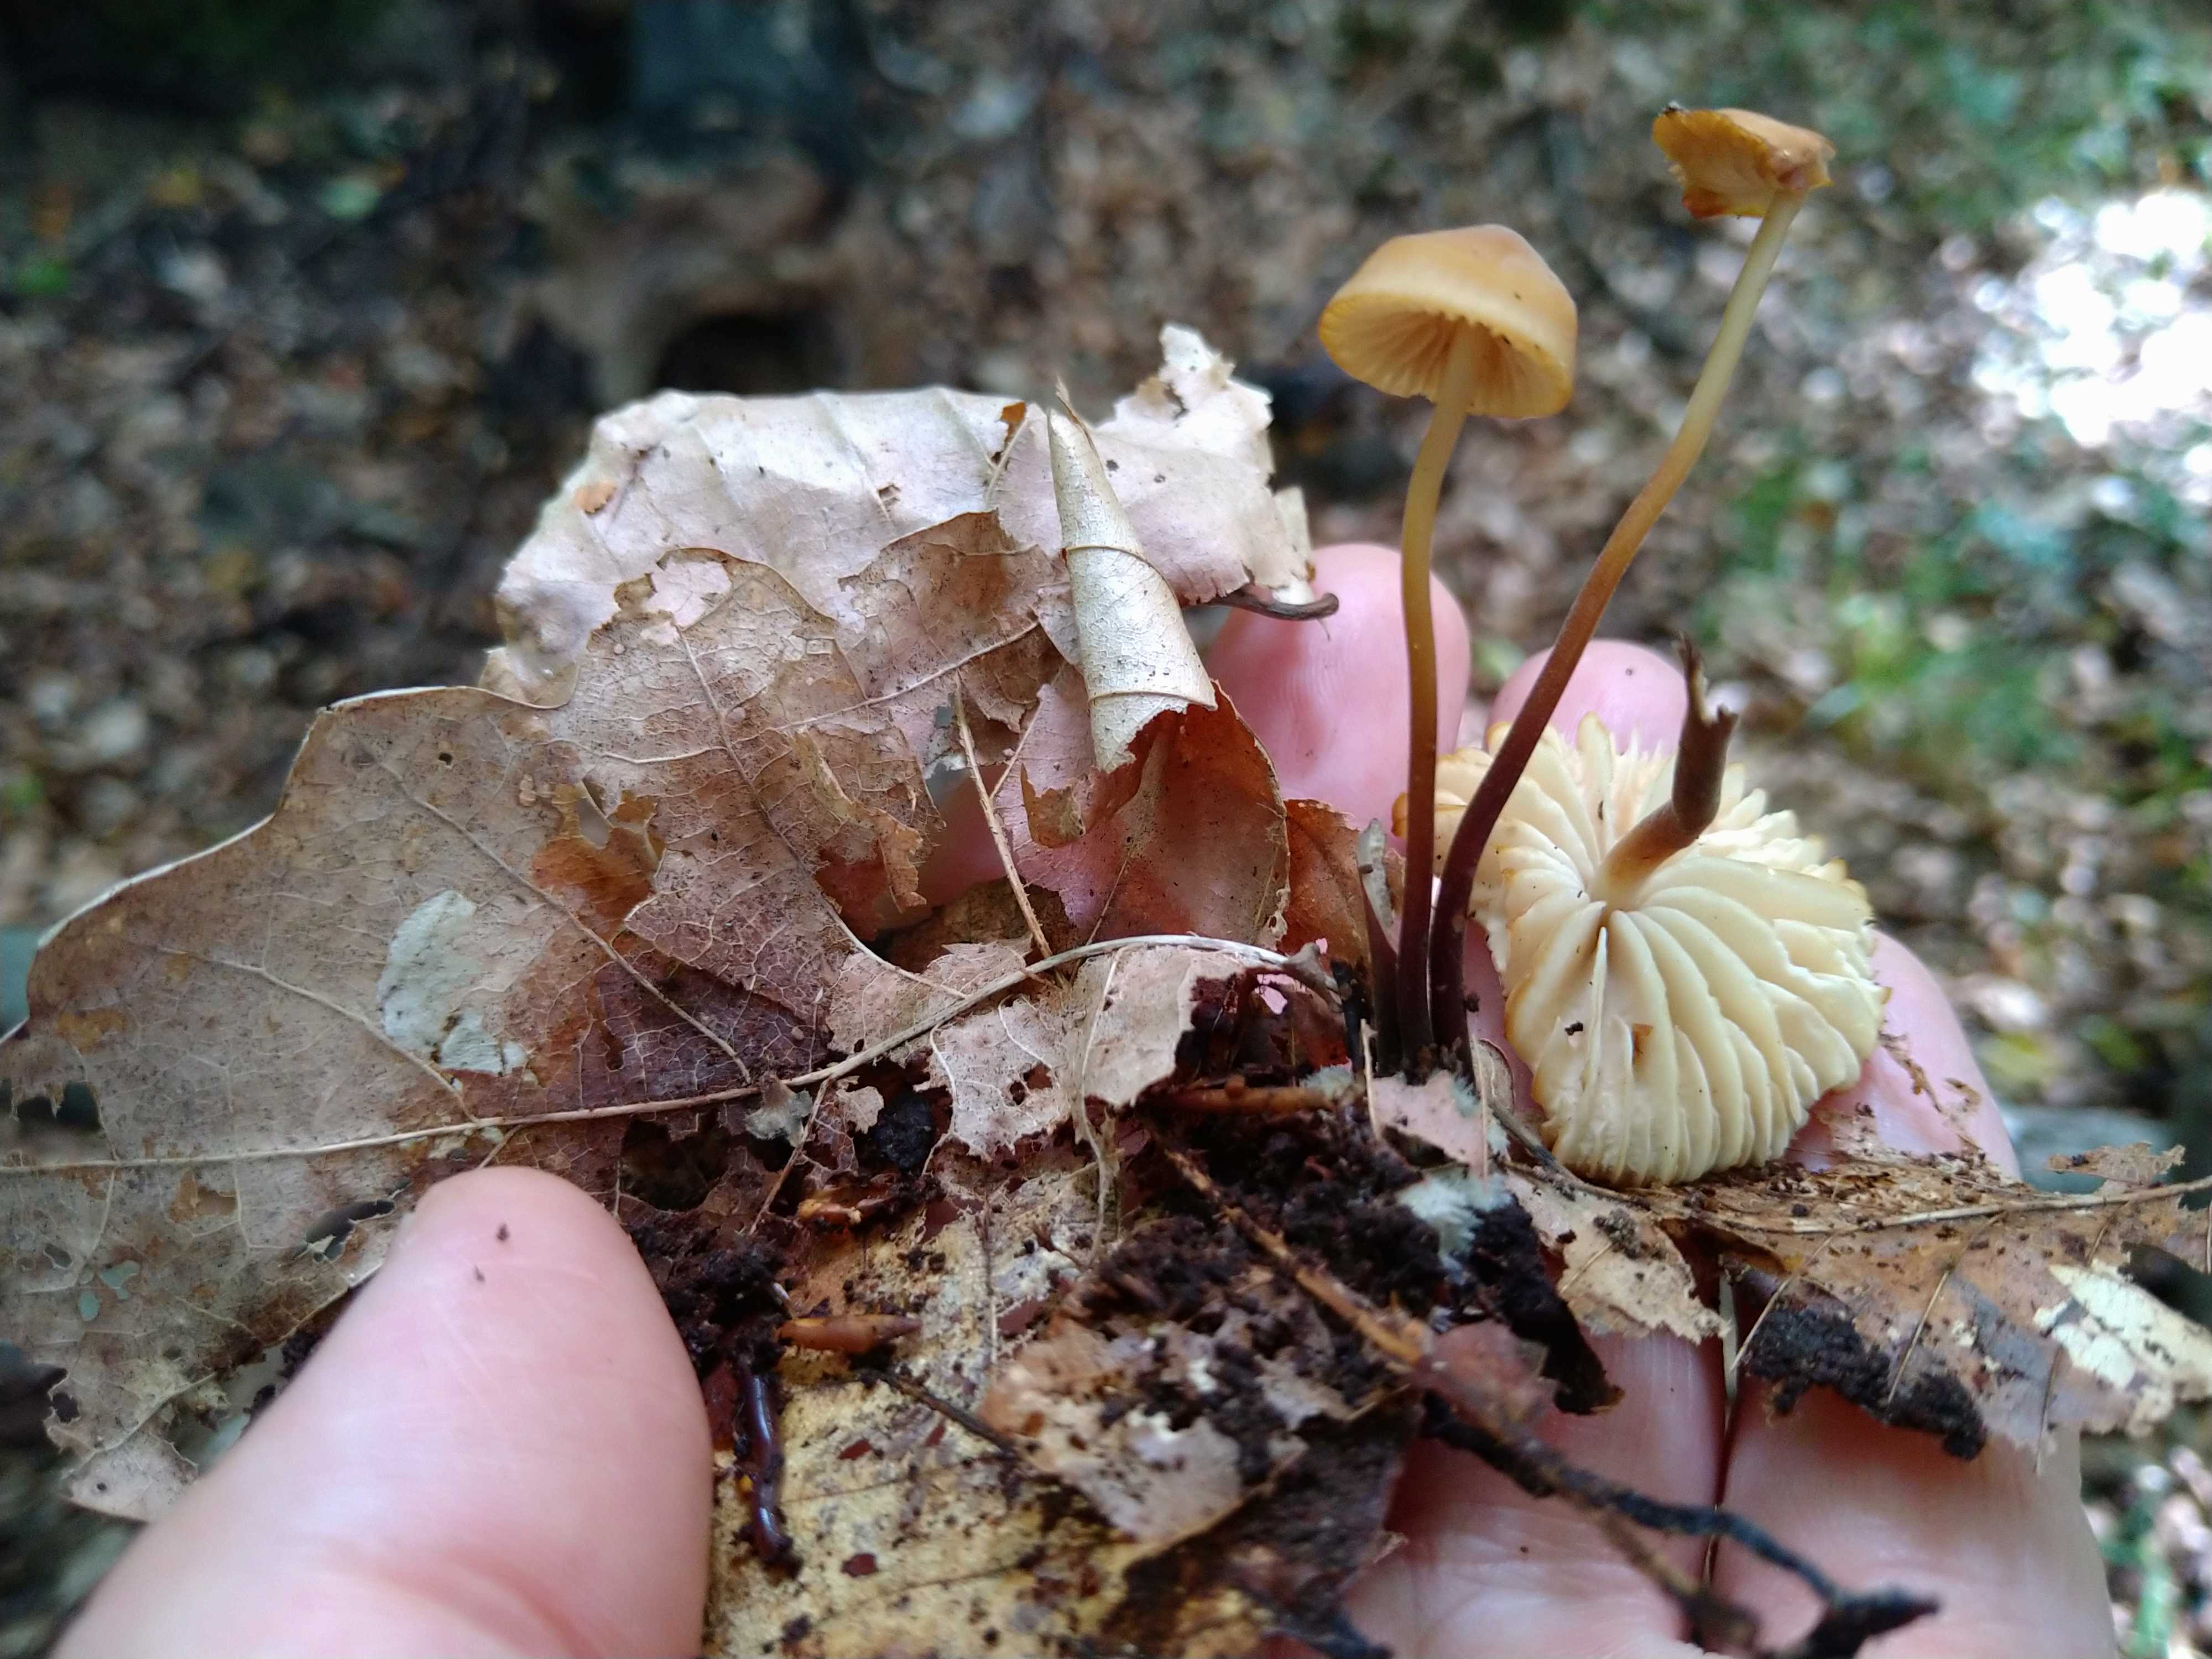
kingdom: Fungi
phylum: Basidiomycota
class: Agaricomycetes
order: Agaricales
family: Marasmiaceae
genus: Marasmius
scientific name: Marasmius torquescens
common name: filtfodet bruskhat
